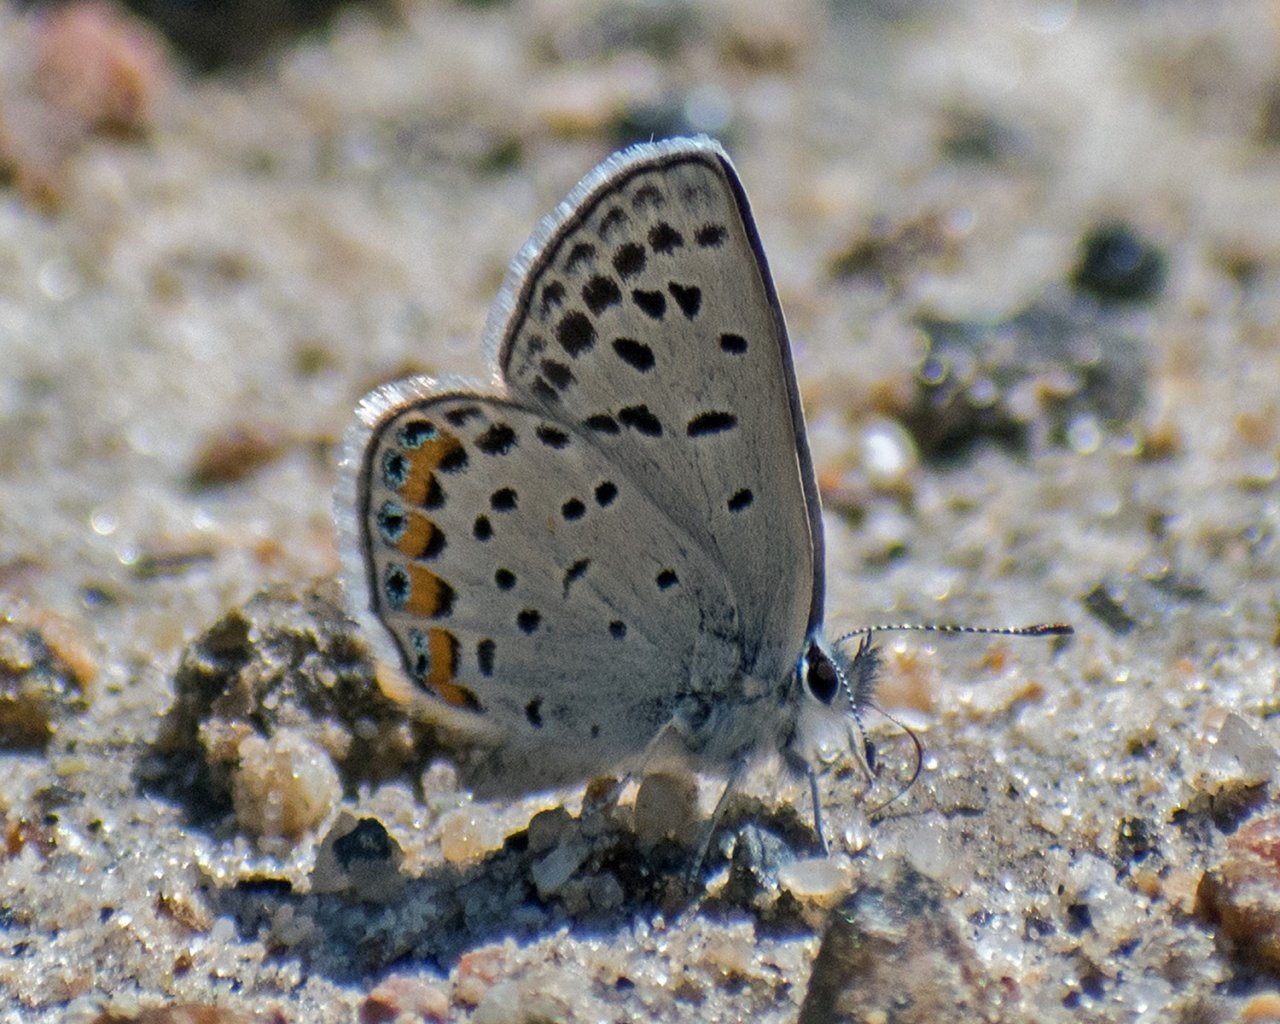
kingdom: Animalia
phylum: Arthropoda
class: Insecta
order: Lepidoptera
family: Lycaenidae
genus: Plebejus
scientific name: Plebejus lupini
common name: Lupine Blue
